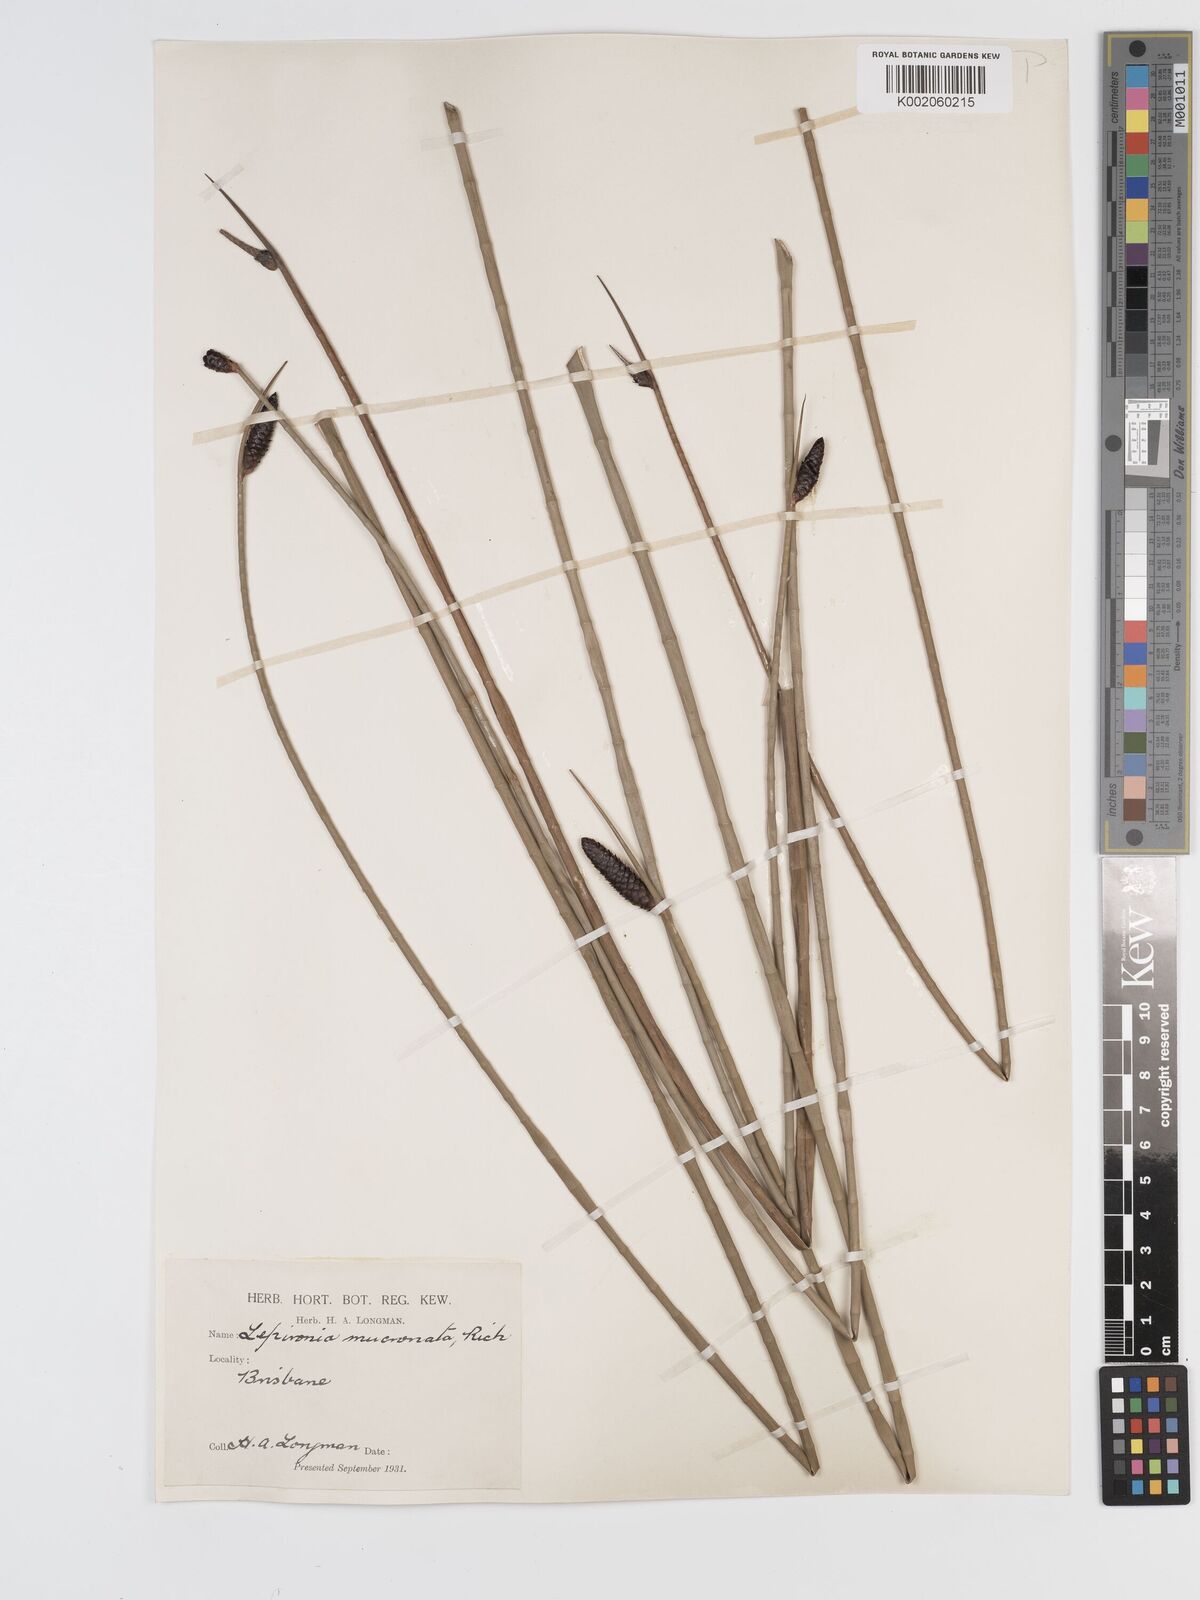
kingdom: Plantae
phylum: Tracheophyta
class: Liliopsida
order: Poales
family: Cyperaceae
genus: Lepironia
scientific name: Lepironia articulata
